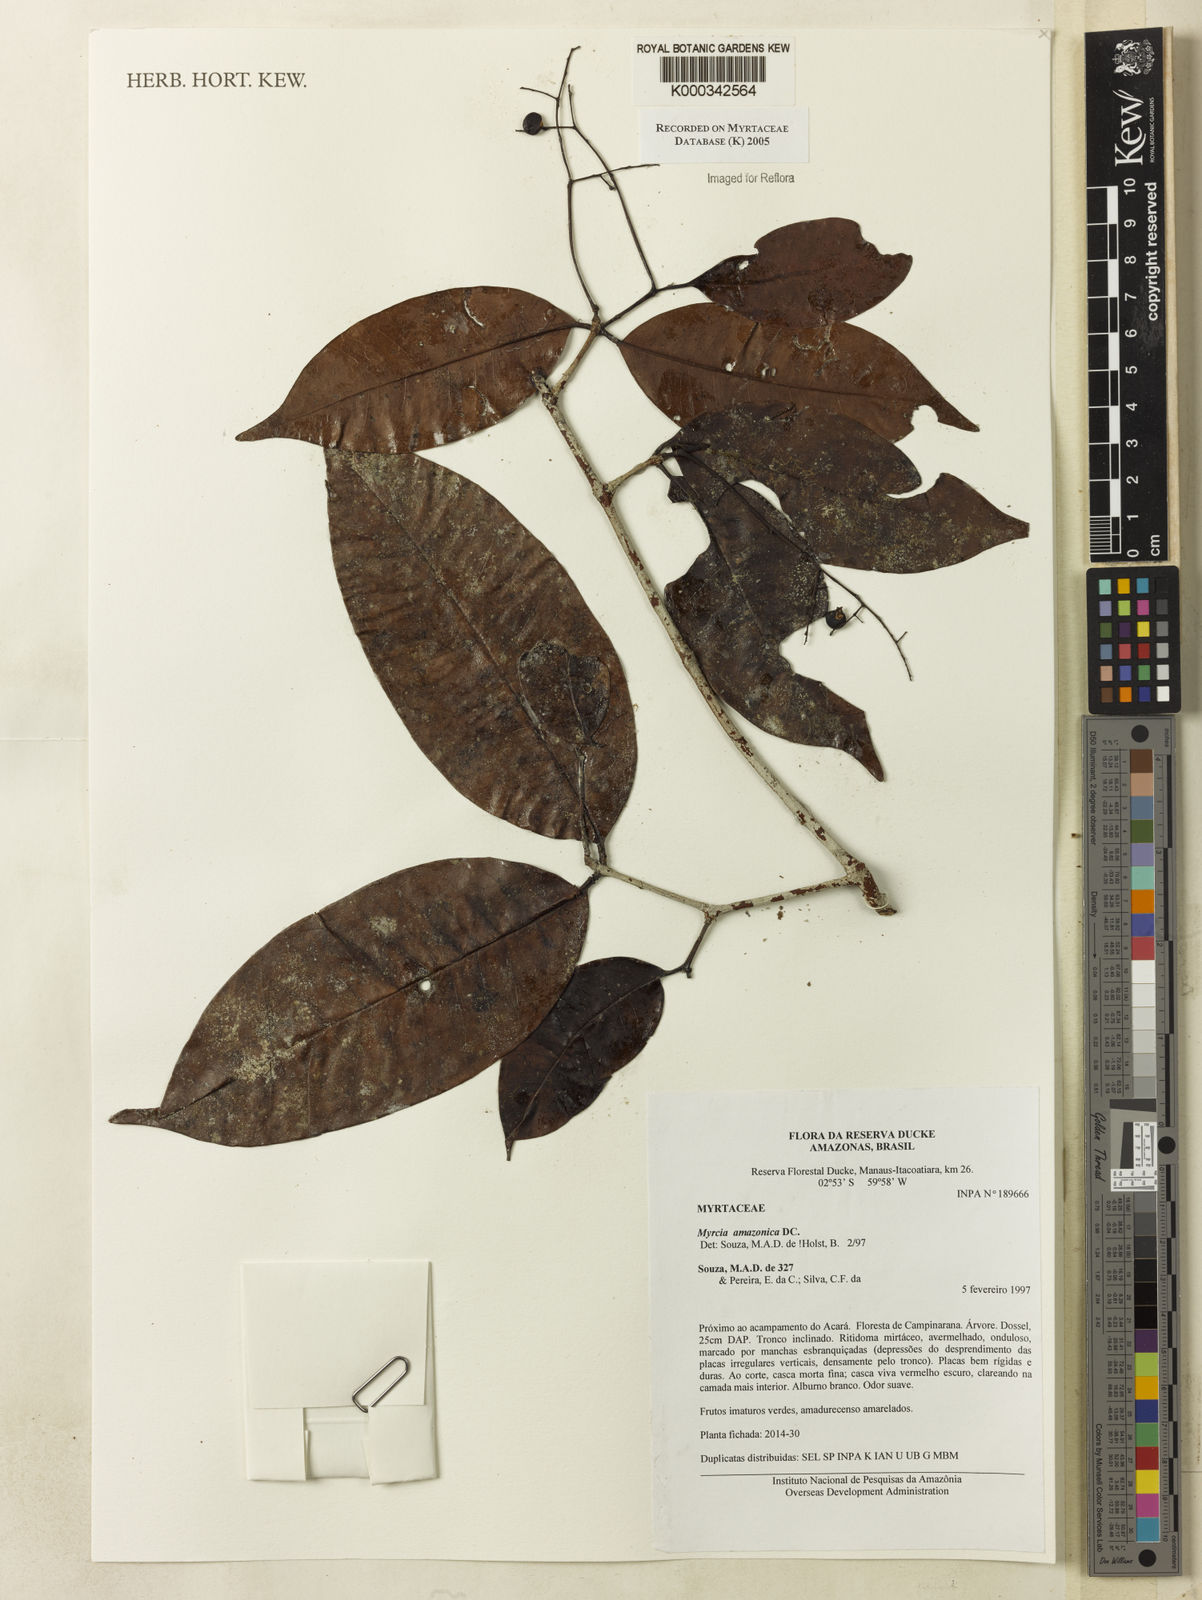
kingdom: Plantae
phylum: Tracheophyta
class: Magnoliopsida
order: Myrtales
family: Myrtaceae
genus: Myrcia
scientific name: Myrcia amazonica
